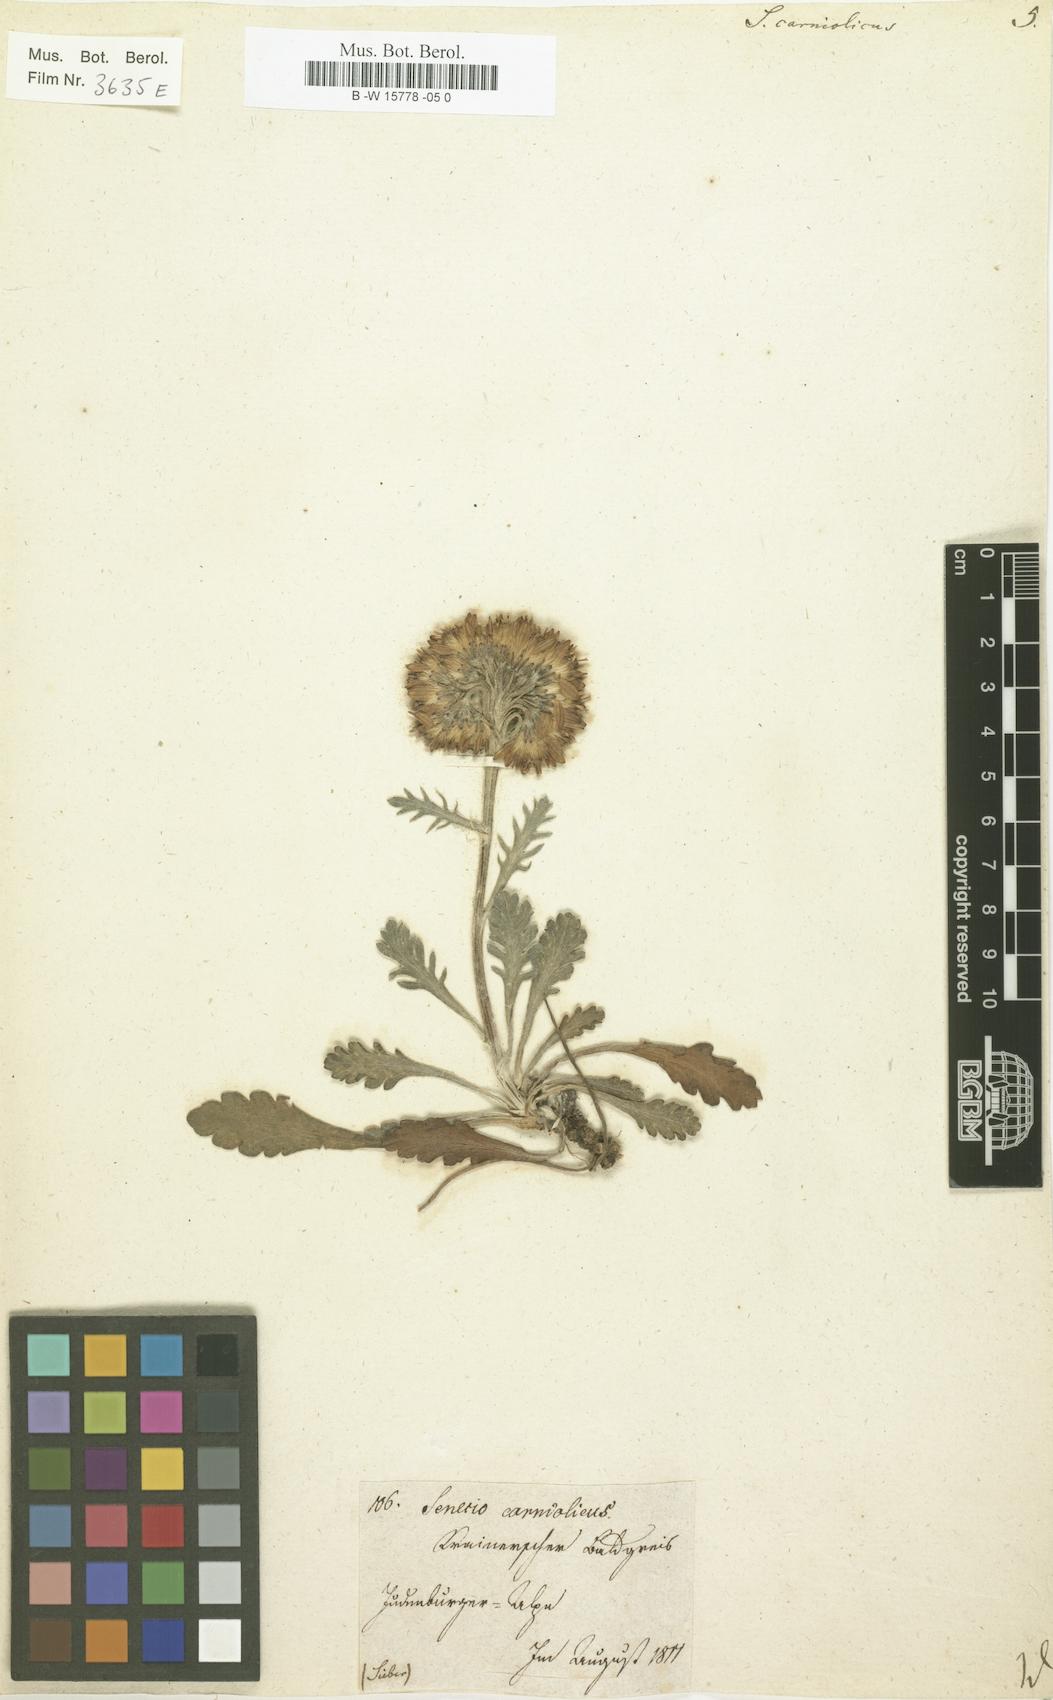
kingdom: Plantae
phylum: Tracheophyta
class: Magnoliopsida
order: Asterales
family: Asteraceae
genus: Jacobaea
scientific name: Jacobaea carniolica
